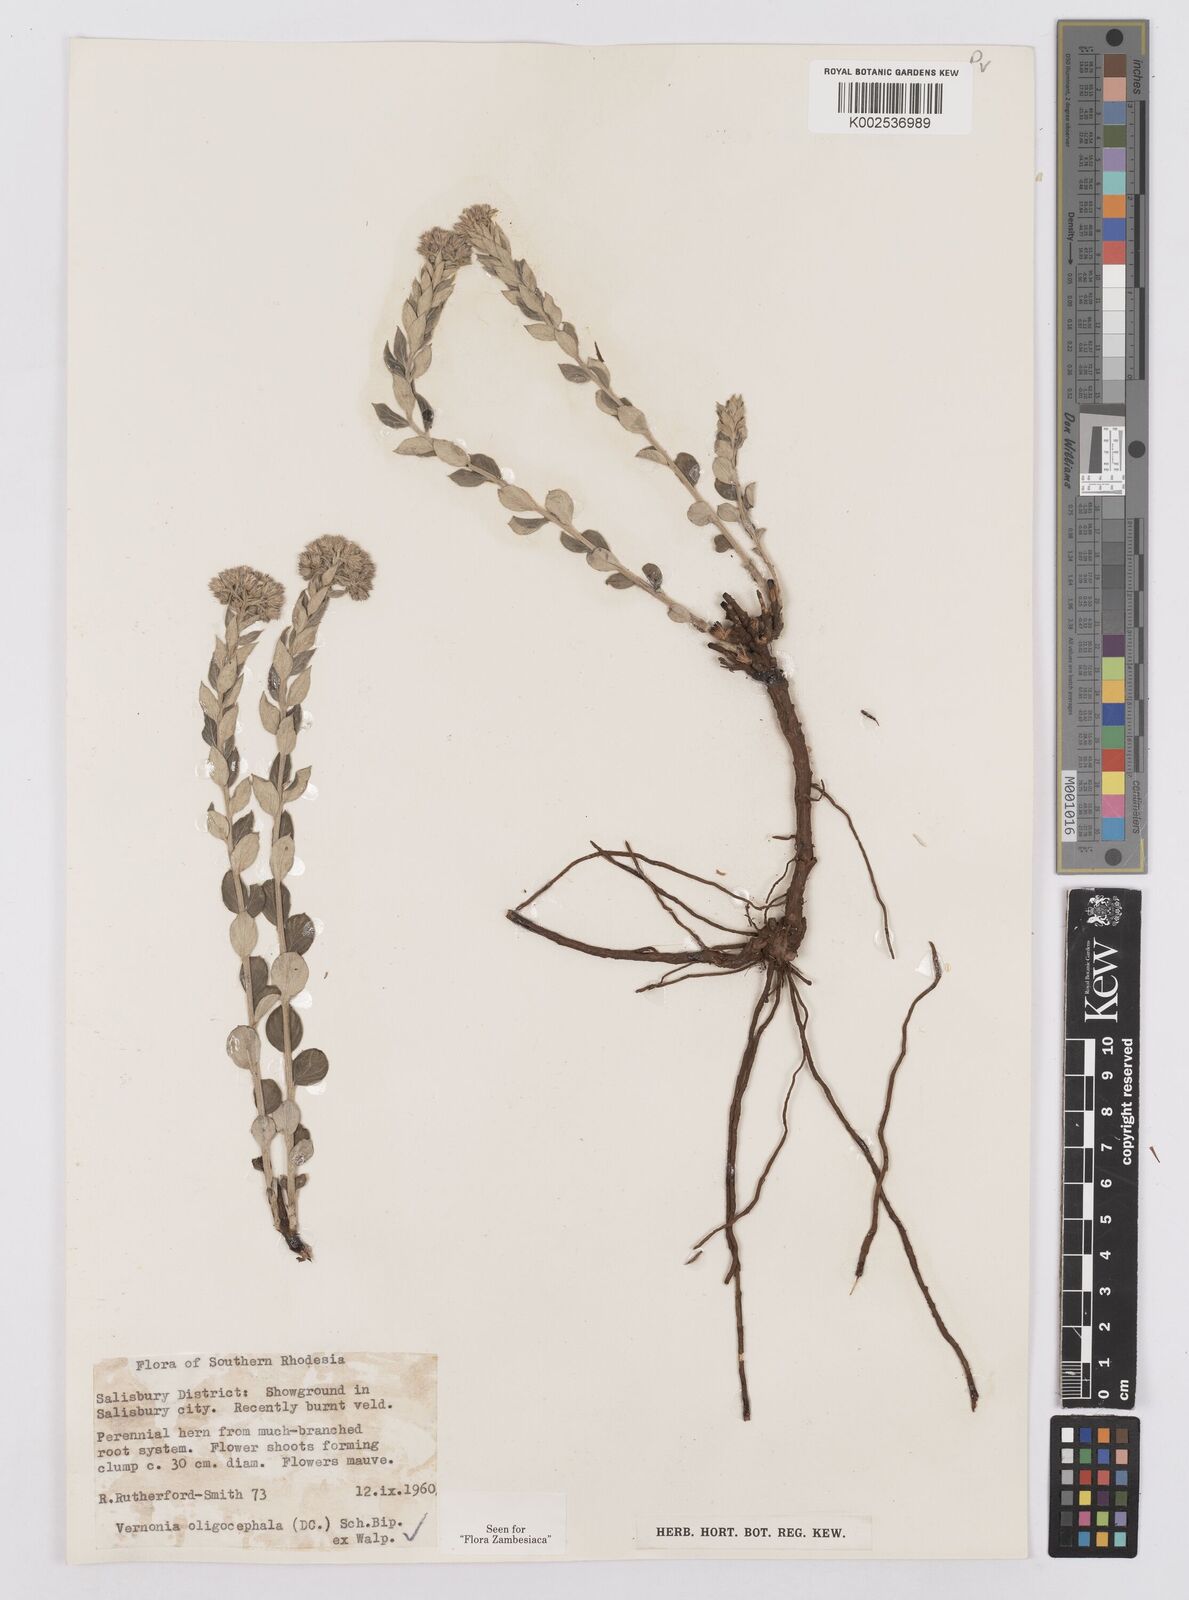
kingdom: Plantae
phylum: Tracheophyta
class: Magnoliopsida
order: Asterales
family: Asteraceae
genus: Hilliardiella
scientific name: Hilliardiella oligocephala
